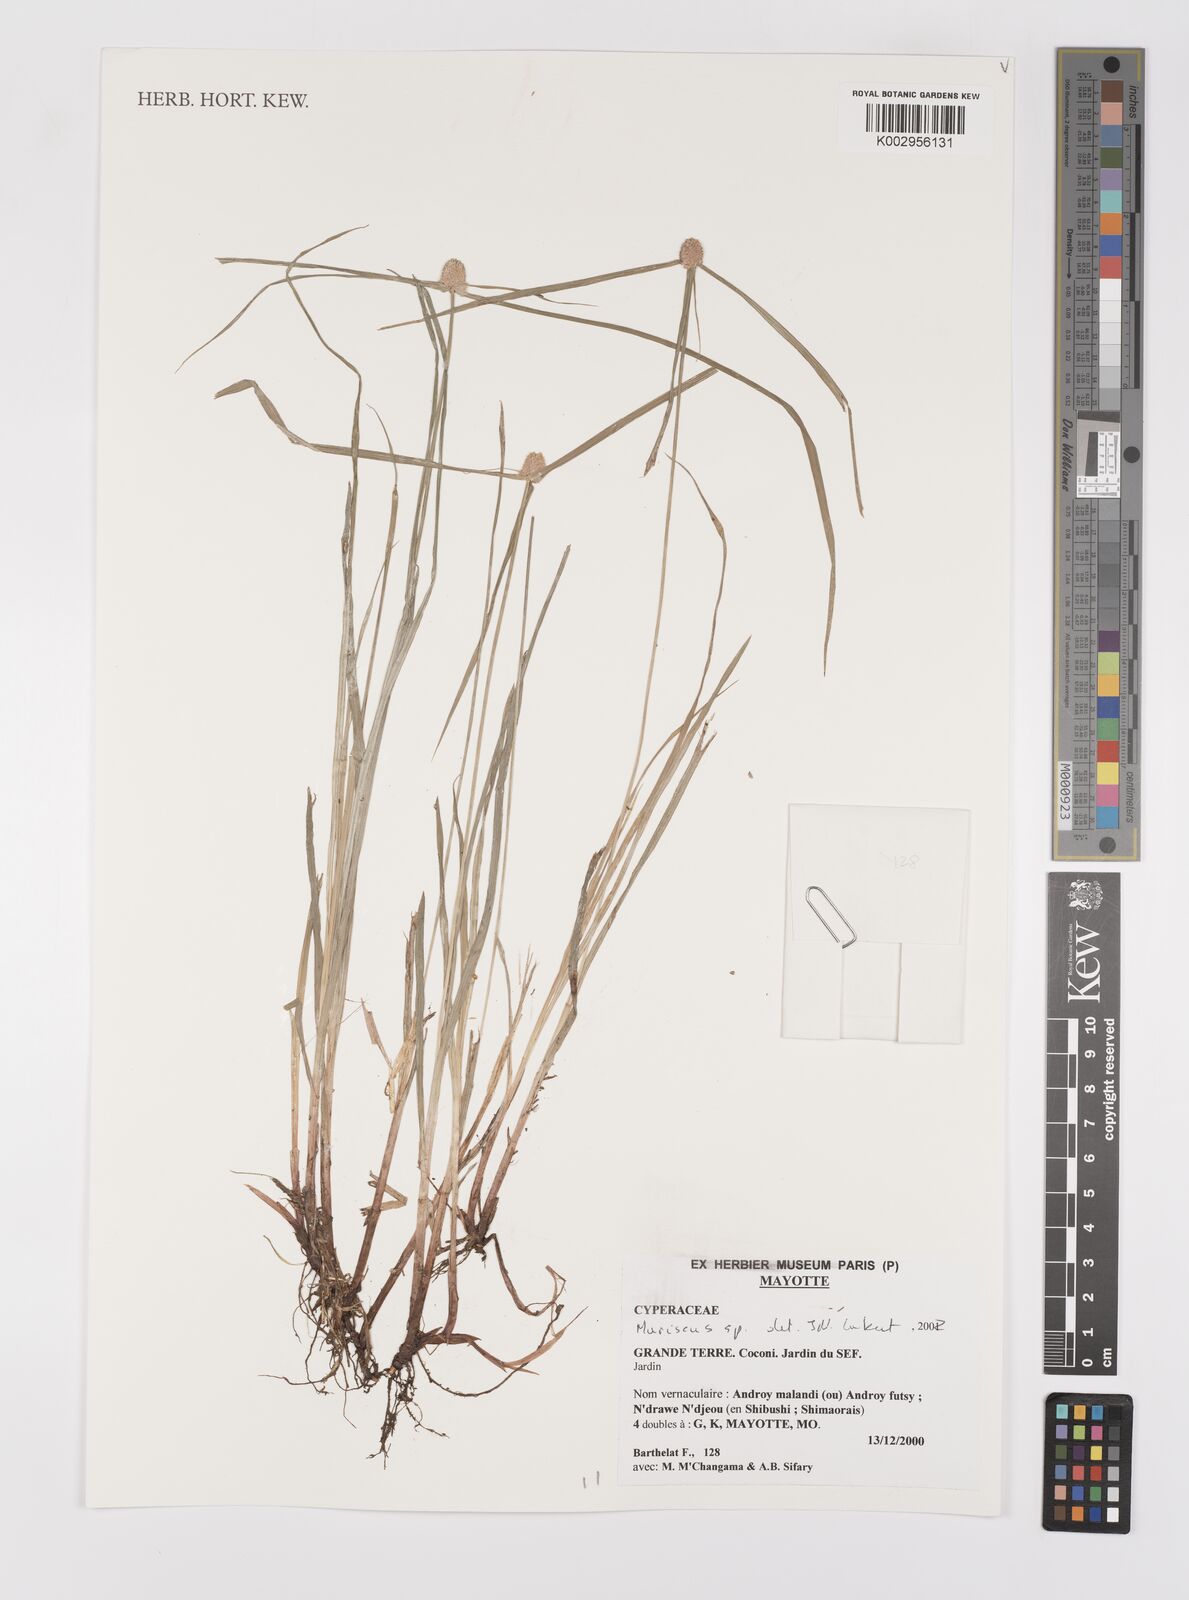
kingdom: Plantae
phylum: Tracheophyta
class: Liliopsida
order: Poales
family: Cyperaceae
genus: Cyperus
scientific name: Cyperus
